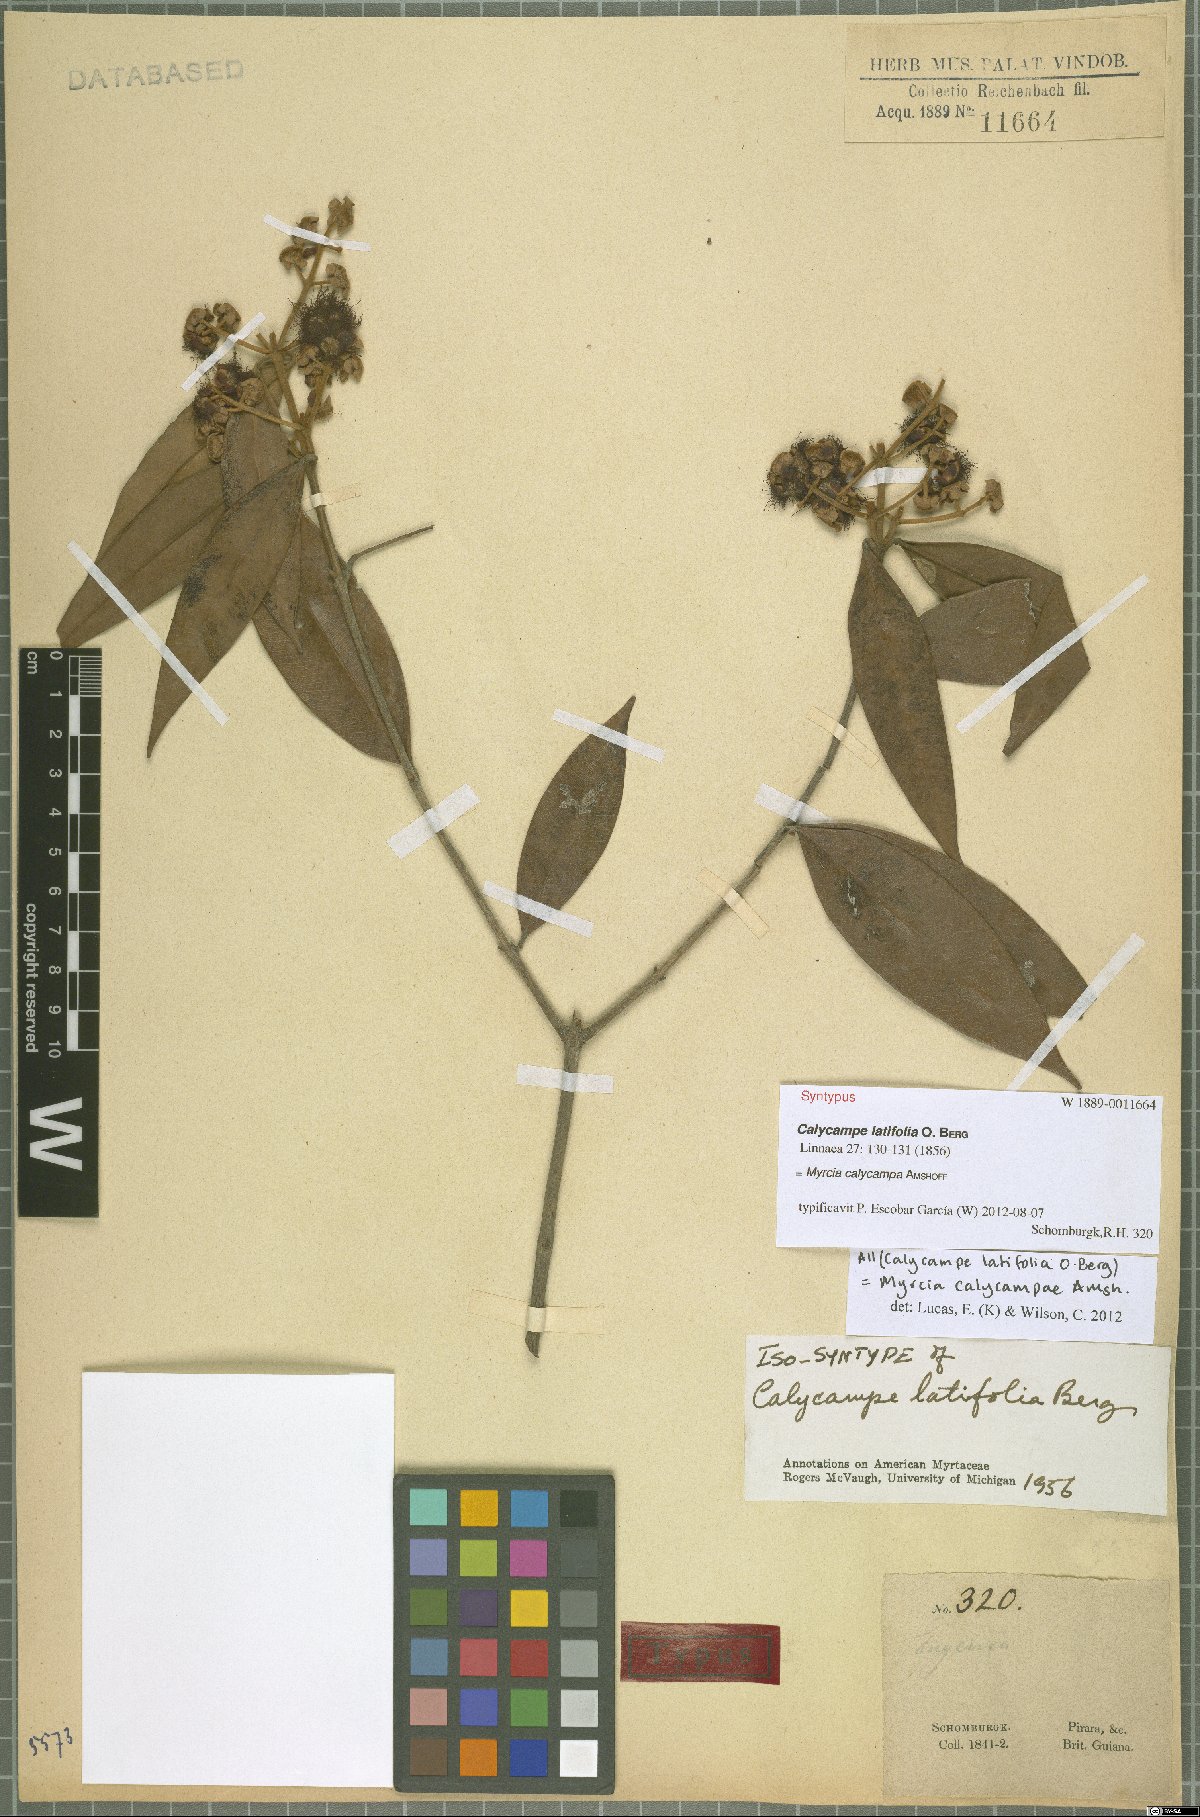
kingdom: Plantae
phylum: Tracheophyta
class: Magnoliopsida
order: Myrtales
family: Myrtaceae
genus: Myrcia
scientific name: Myrcia calycampa
